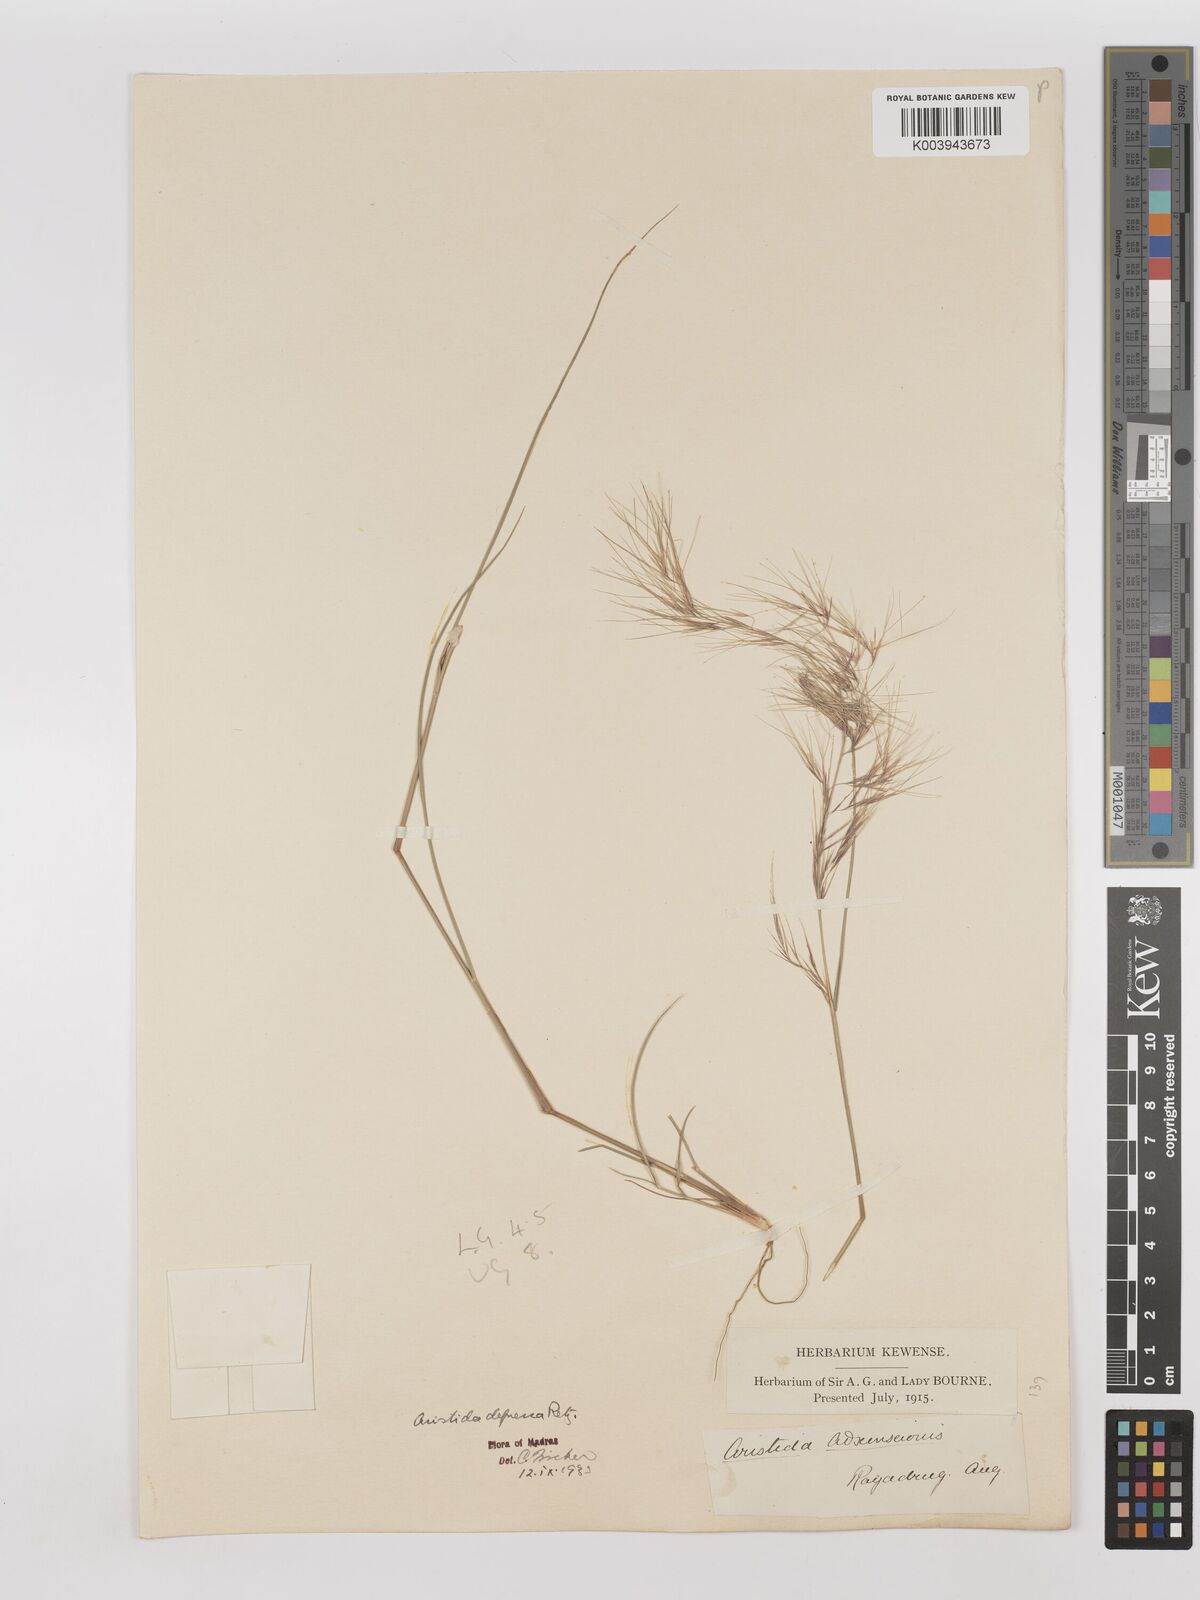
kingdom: Plantae
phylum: Tracheophyta
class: Liliopsida
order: Poales
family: Poaceae
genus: Aristida
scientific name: Aristida adscensionis
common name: Sixweeks threeawn
